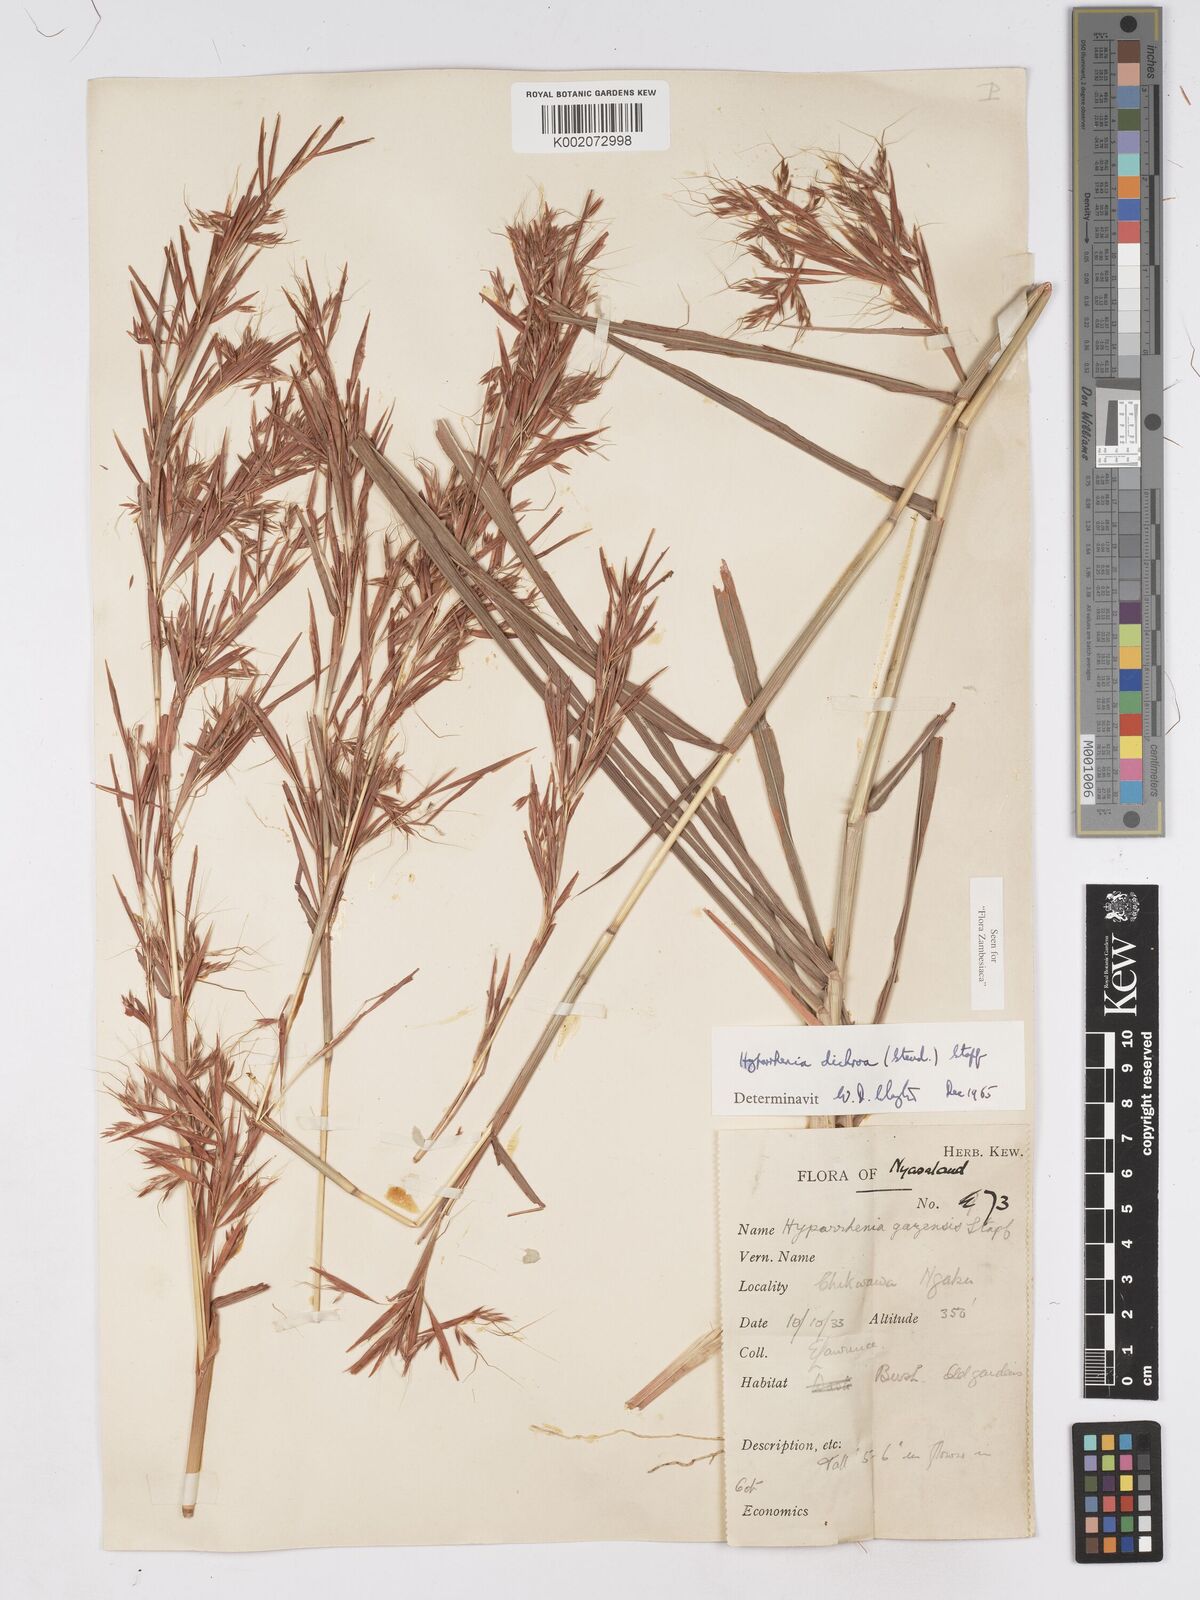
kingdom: Plantae
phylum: Tracheophyta
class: Liliopsida
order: Poales
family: Poaceae
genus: Hyparrhenia
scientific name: Hyparrhenia dichroa
